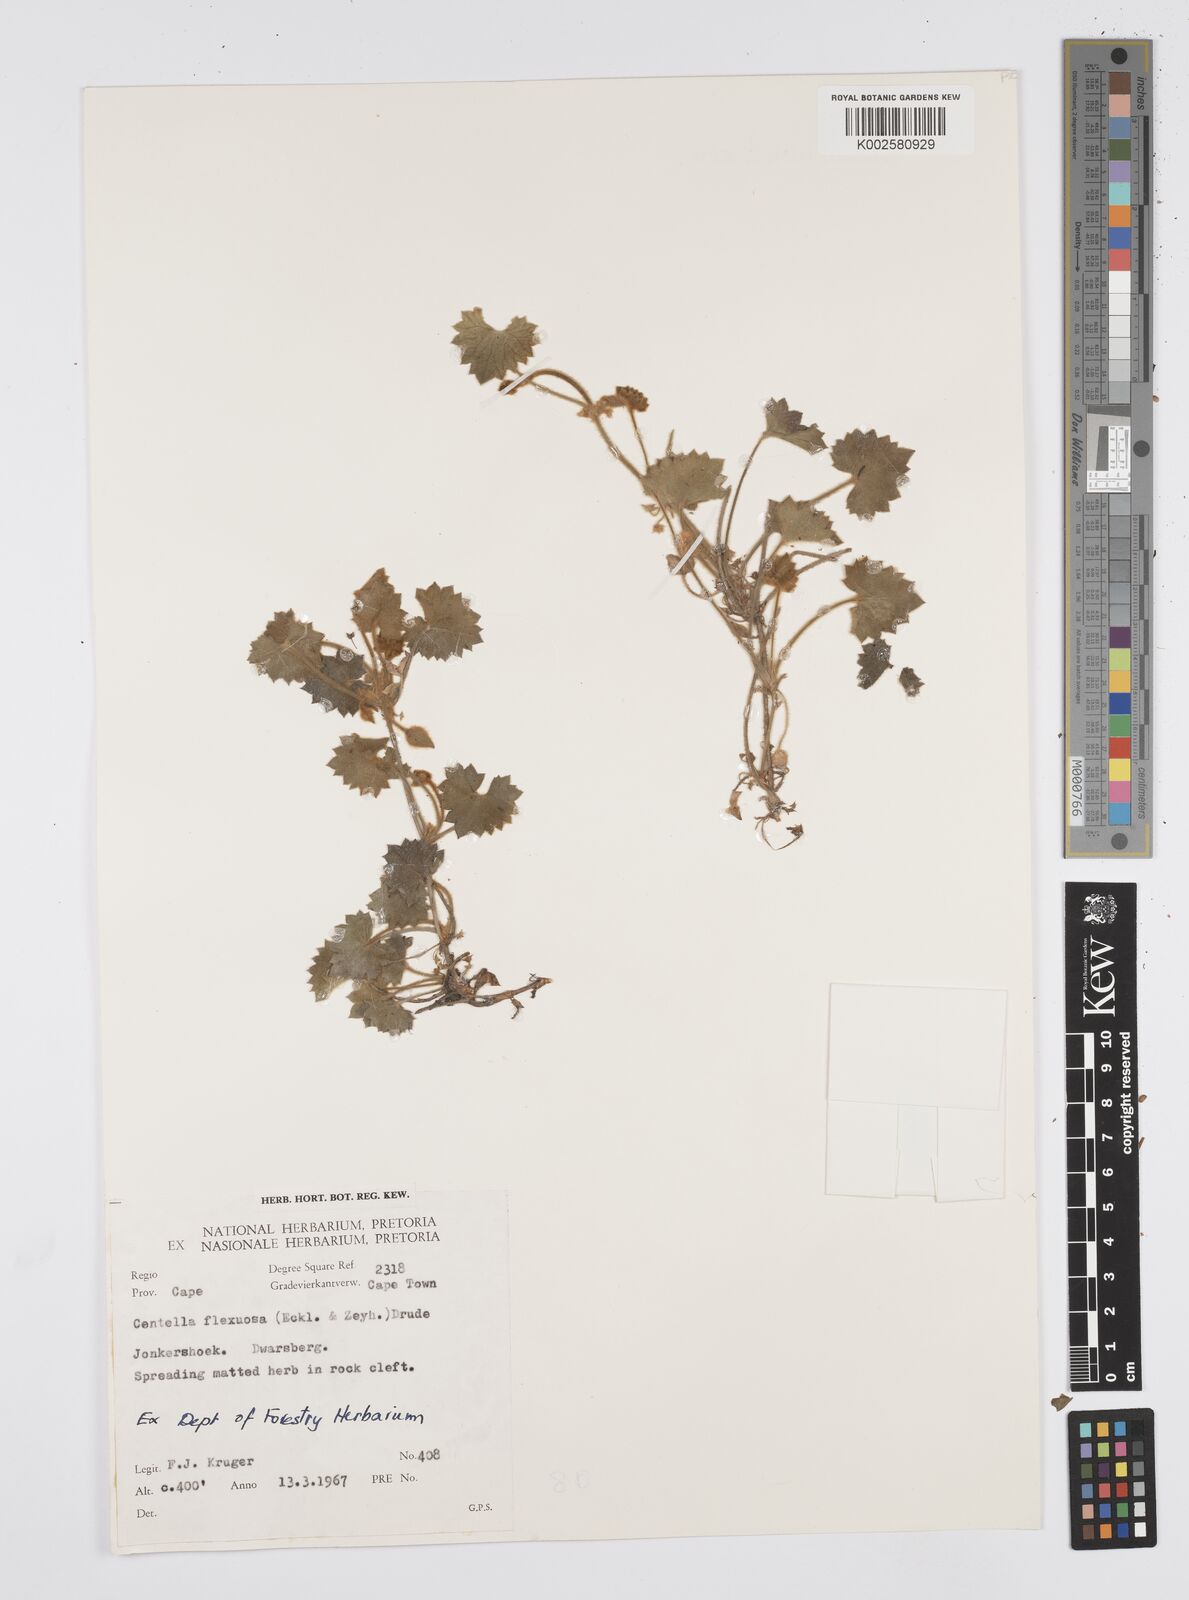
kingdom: Plantae
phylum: Tracheophyta
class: Magnoliopsida
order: Apiales
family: Apiaceae
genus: Centella
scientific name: Centella flexuosa
